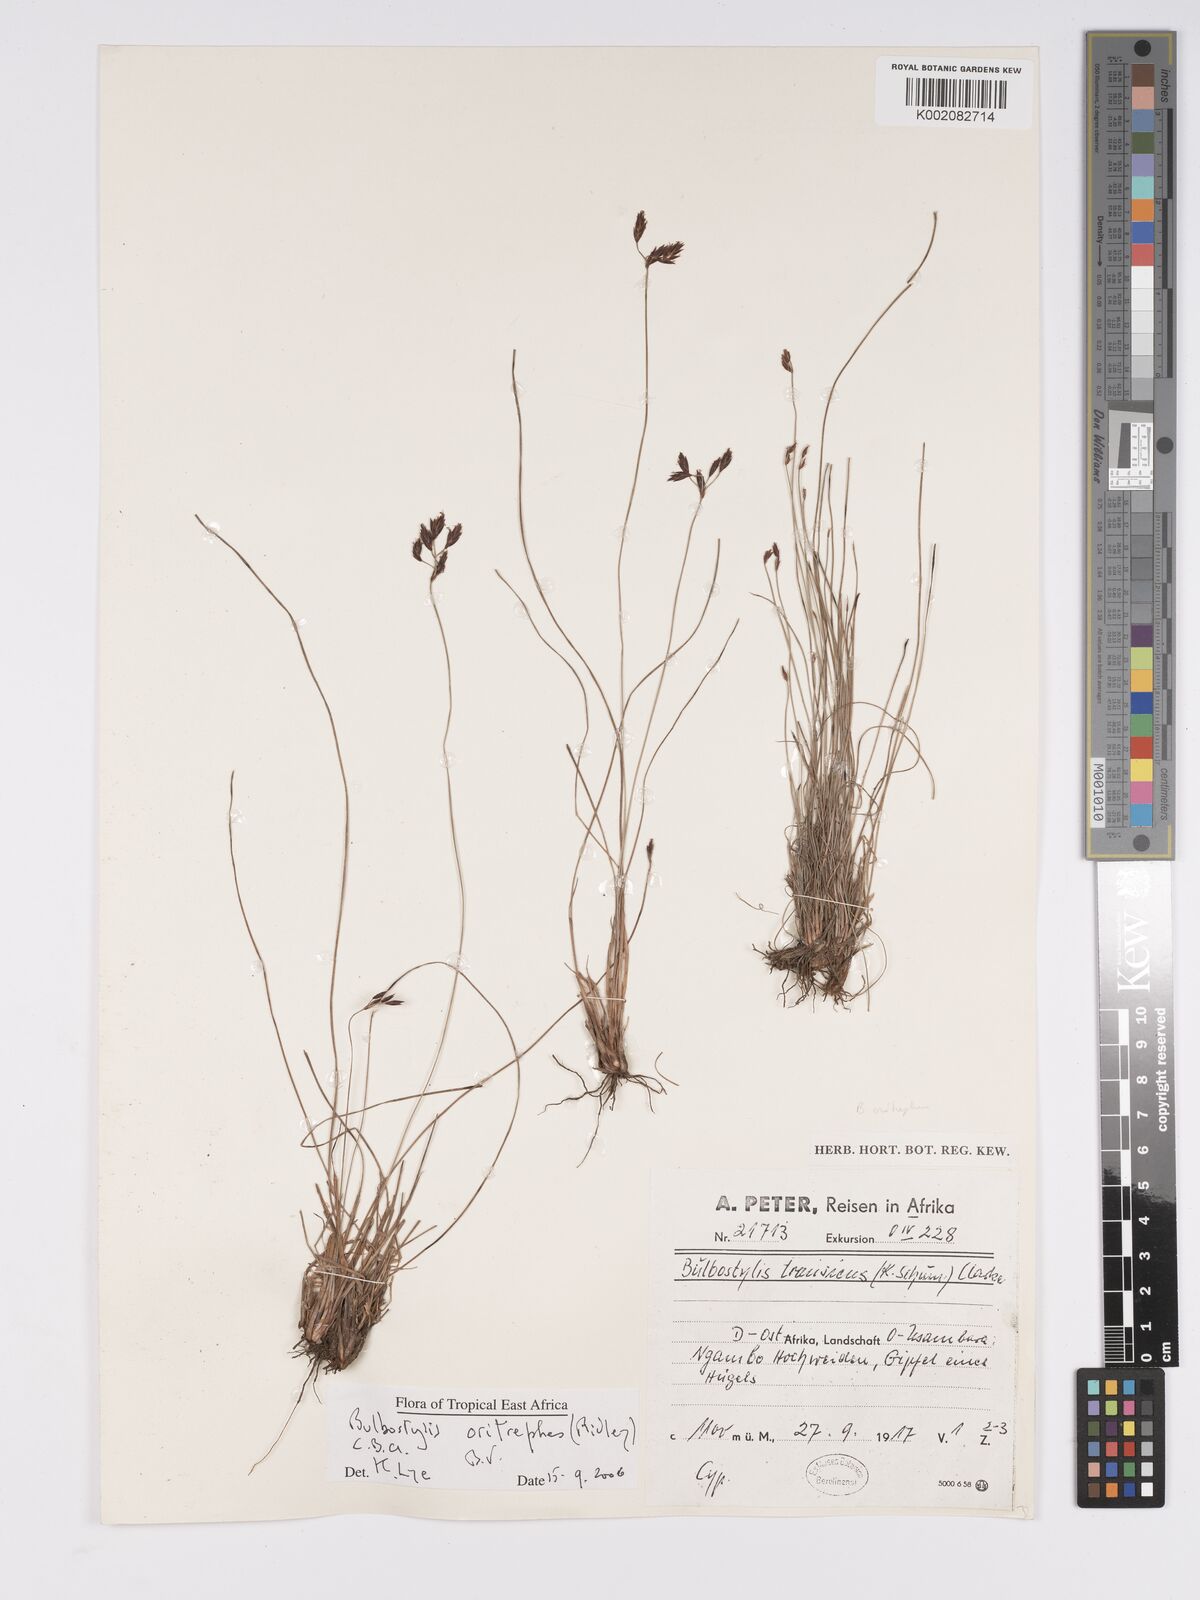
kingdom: Plantae
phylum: Tracheophyta
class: Liliopsida
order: Poales
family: Cyperaceae
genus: Bulbostylis
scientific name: Bulbostylis oritrephes
